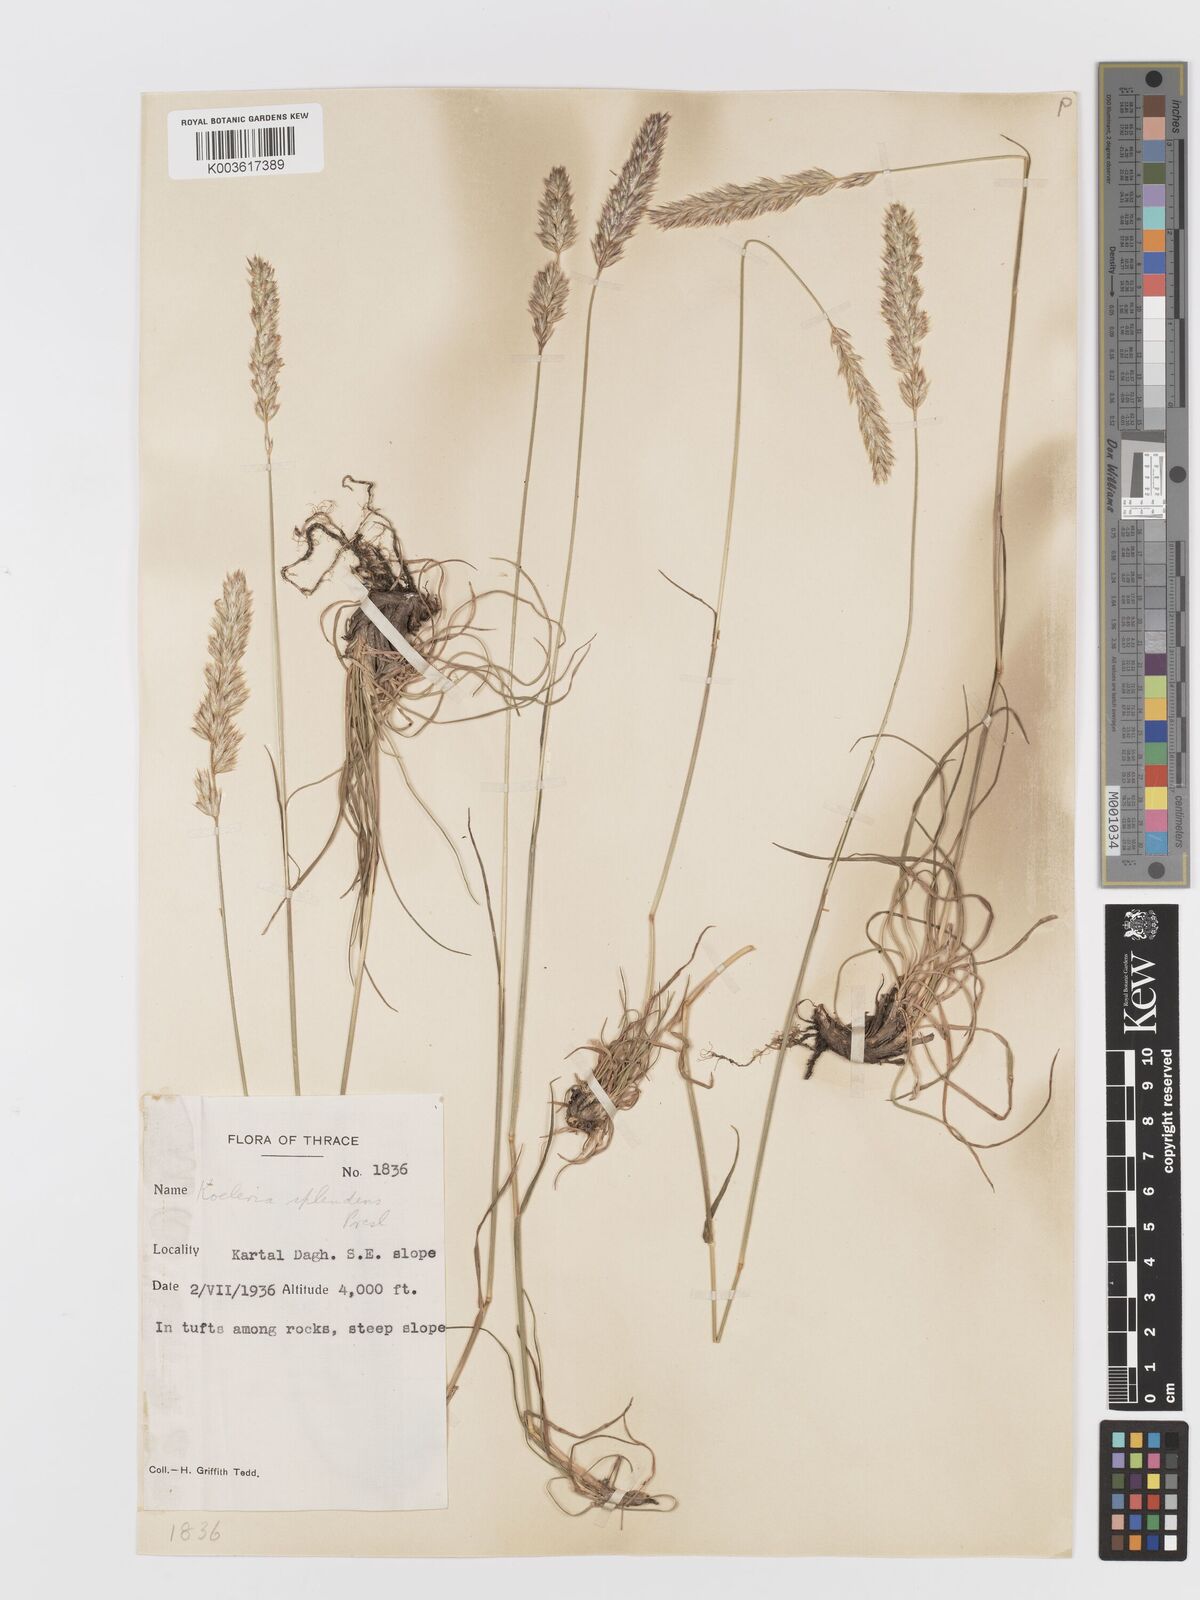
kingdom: Plantae
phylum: Tracheophyta
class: Liliopsida
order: Poales
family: Poaceae
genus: Koeleria
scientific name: Koeleria splendens
